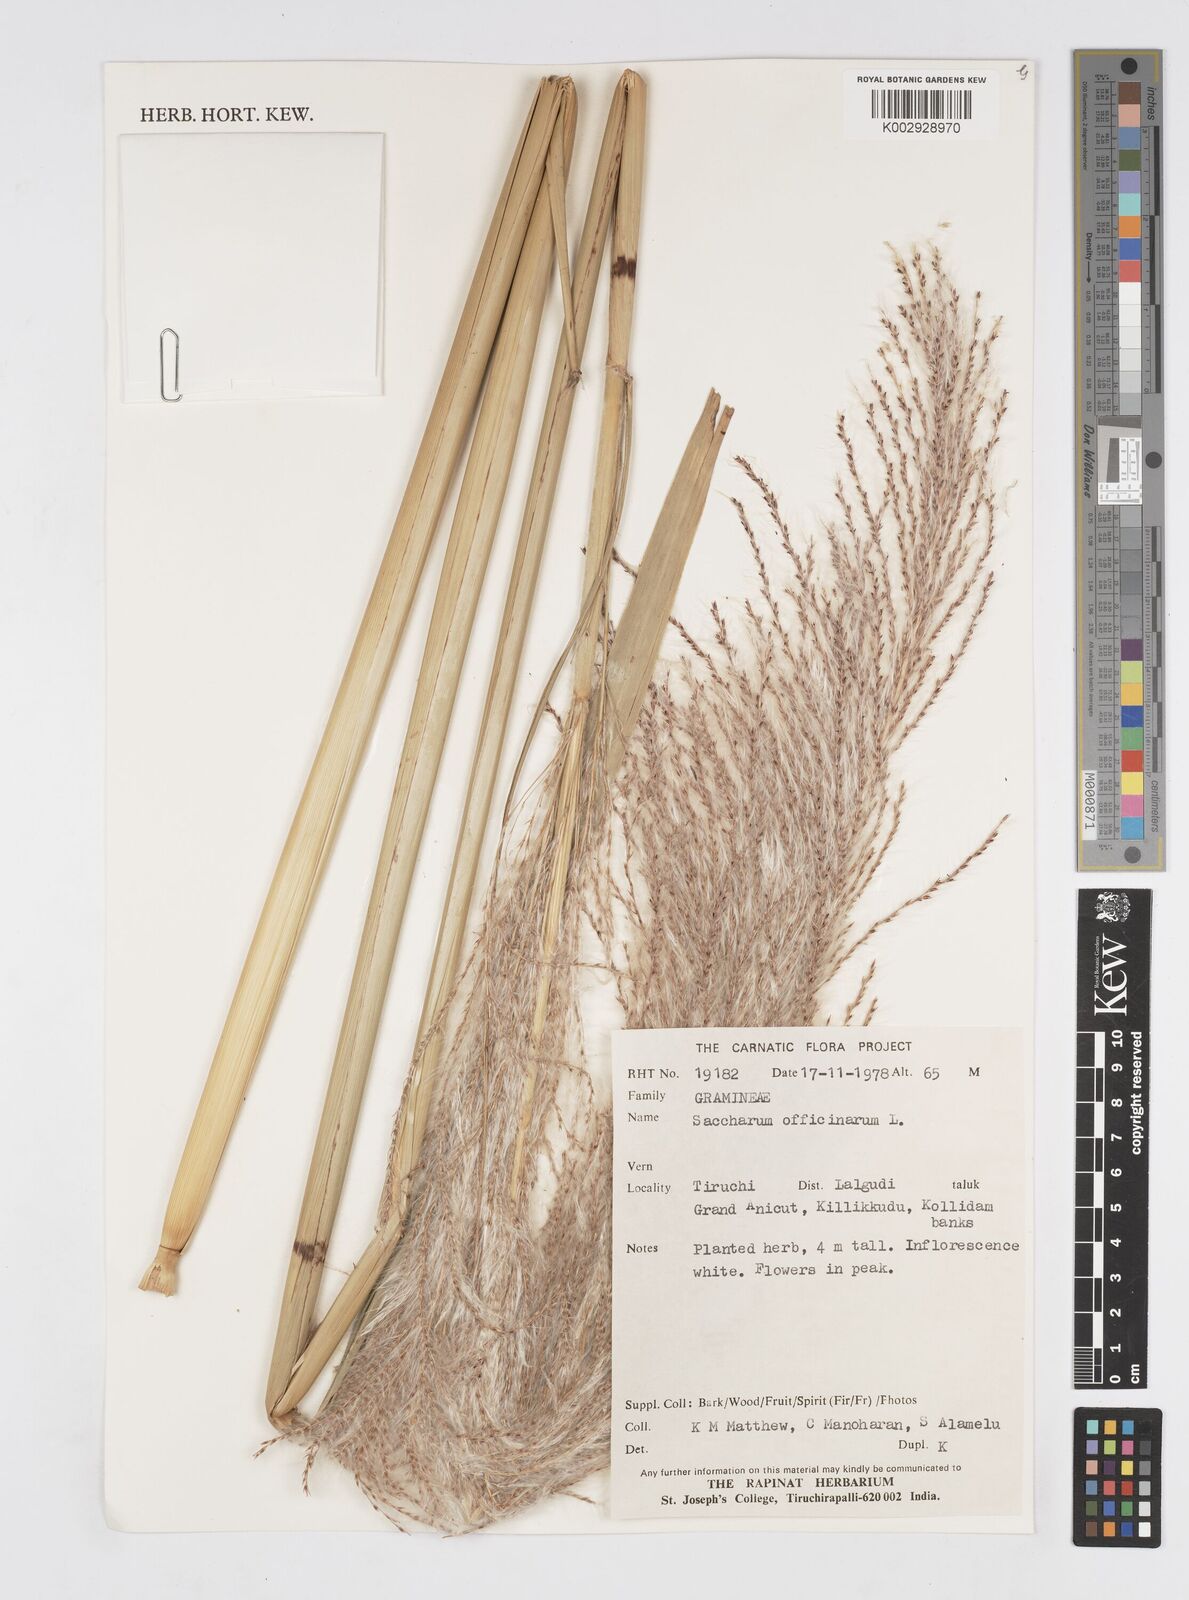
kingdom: Plantae
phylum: Tracheophyta
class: Liliopsida
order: Poales
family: Poaceae
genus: Saccharum
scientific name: Saccharum spontaneum
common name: Wild sugarcane
